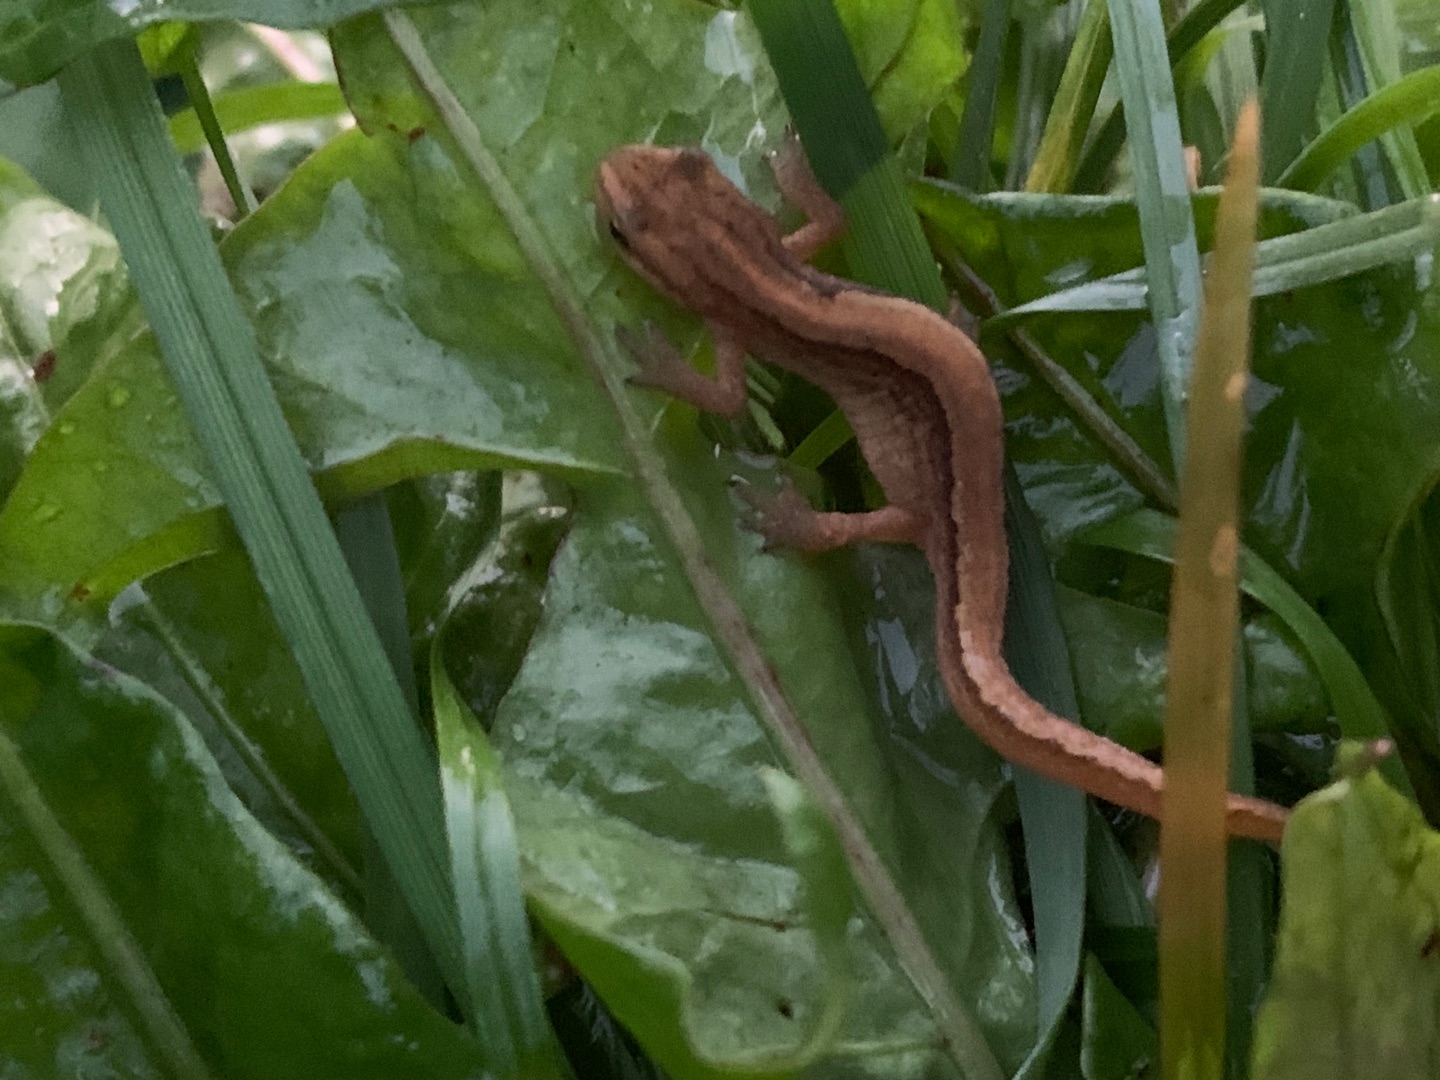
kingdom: Animalia
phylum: Chordata
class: Amphibia
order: Caudata
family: Salamandridae
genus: Lissotriton
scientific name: Lissotriton vulgaris
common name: Lille vandsalamander
